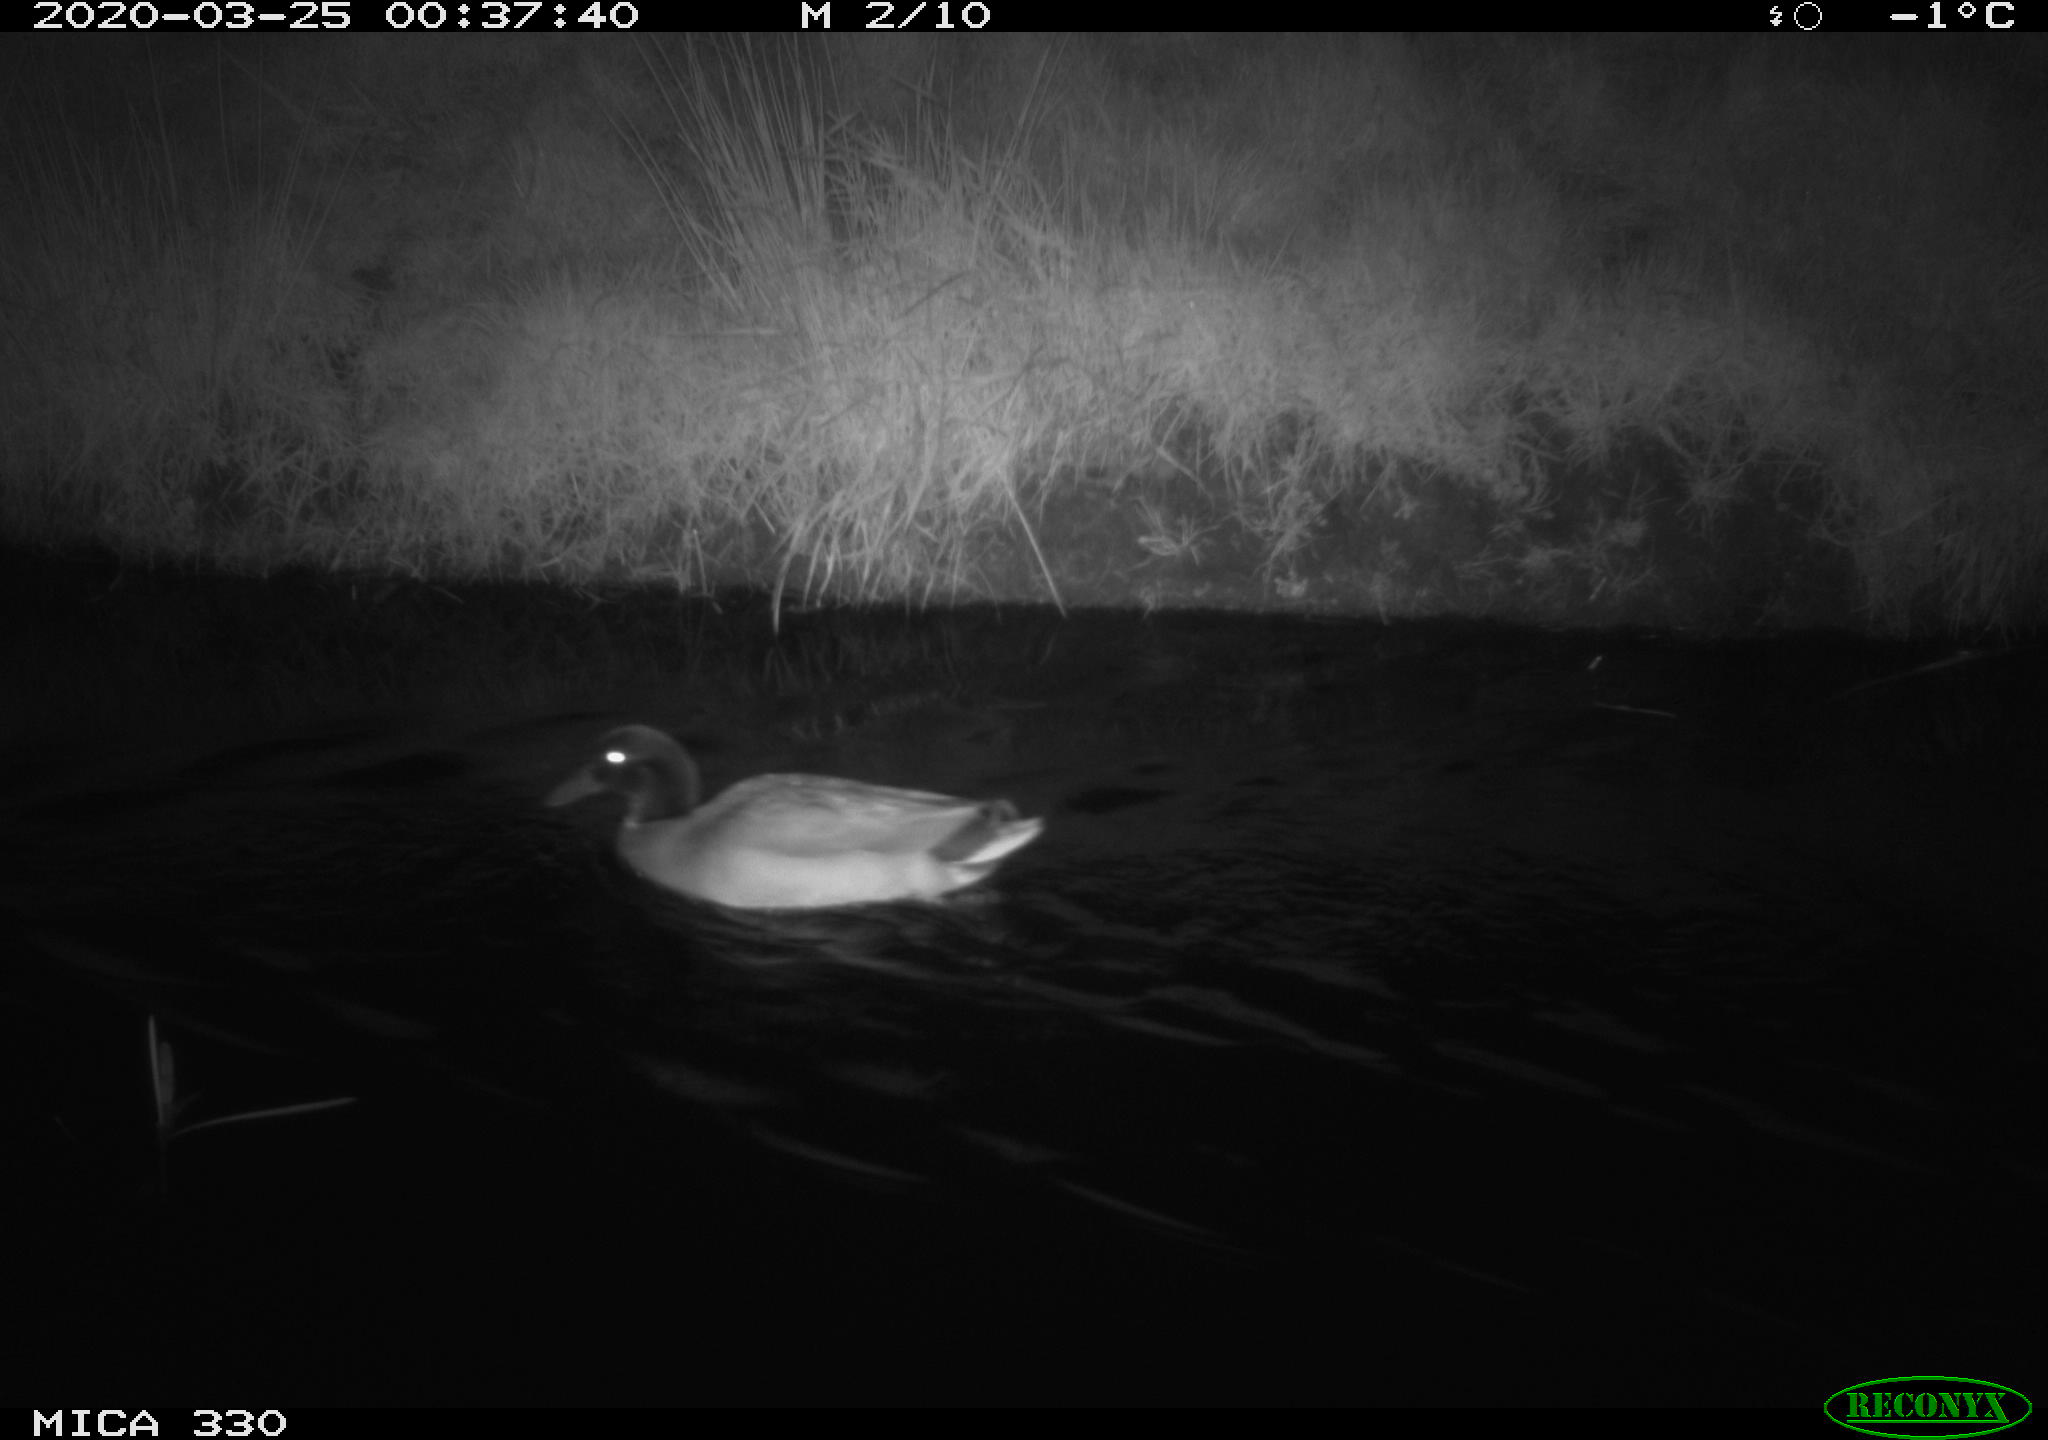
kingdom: Animalia
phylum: Chordata
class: Aves
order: Anseriformes
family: Anatidae
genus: Anas
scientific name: Anas platyrhynchos
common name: Mallard
